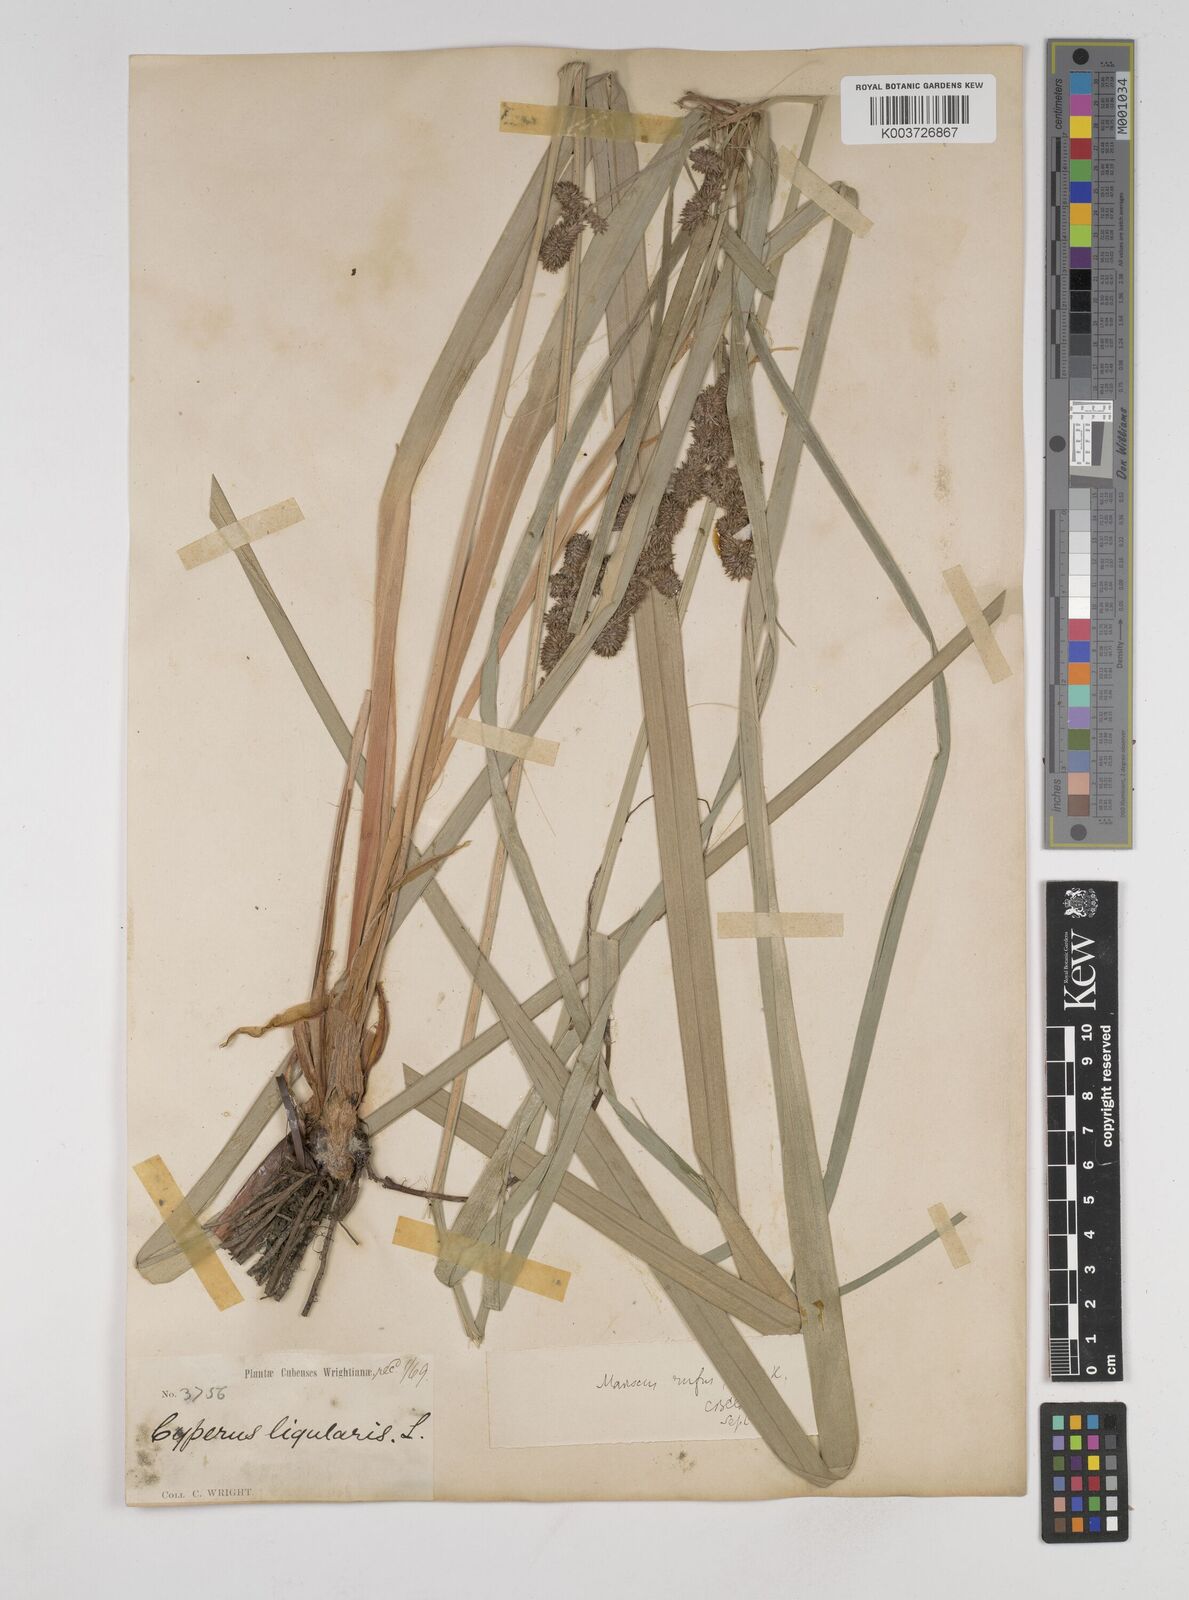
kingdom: Plantae
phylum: Tracheophyta
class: Liliopsida
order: Poales
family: Cyperaceae
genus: Cyperus
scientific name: Cyperus ligularis
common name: Swamp flat sedge
